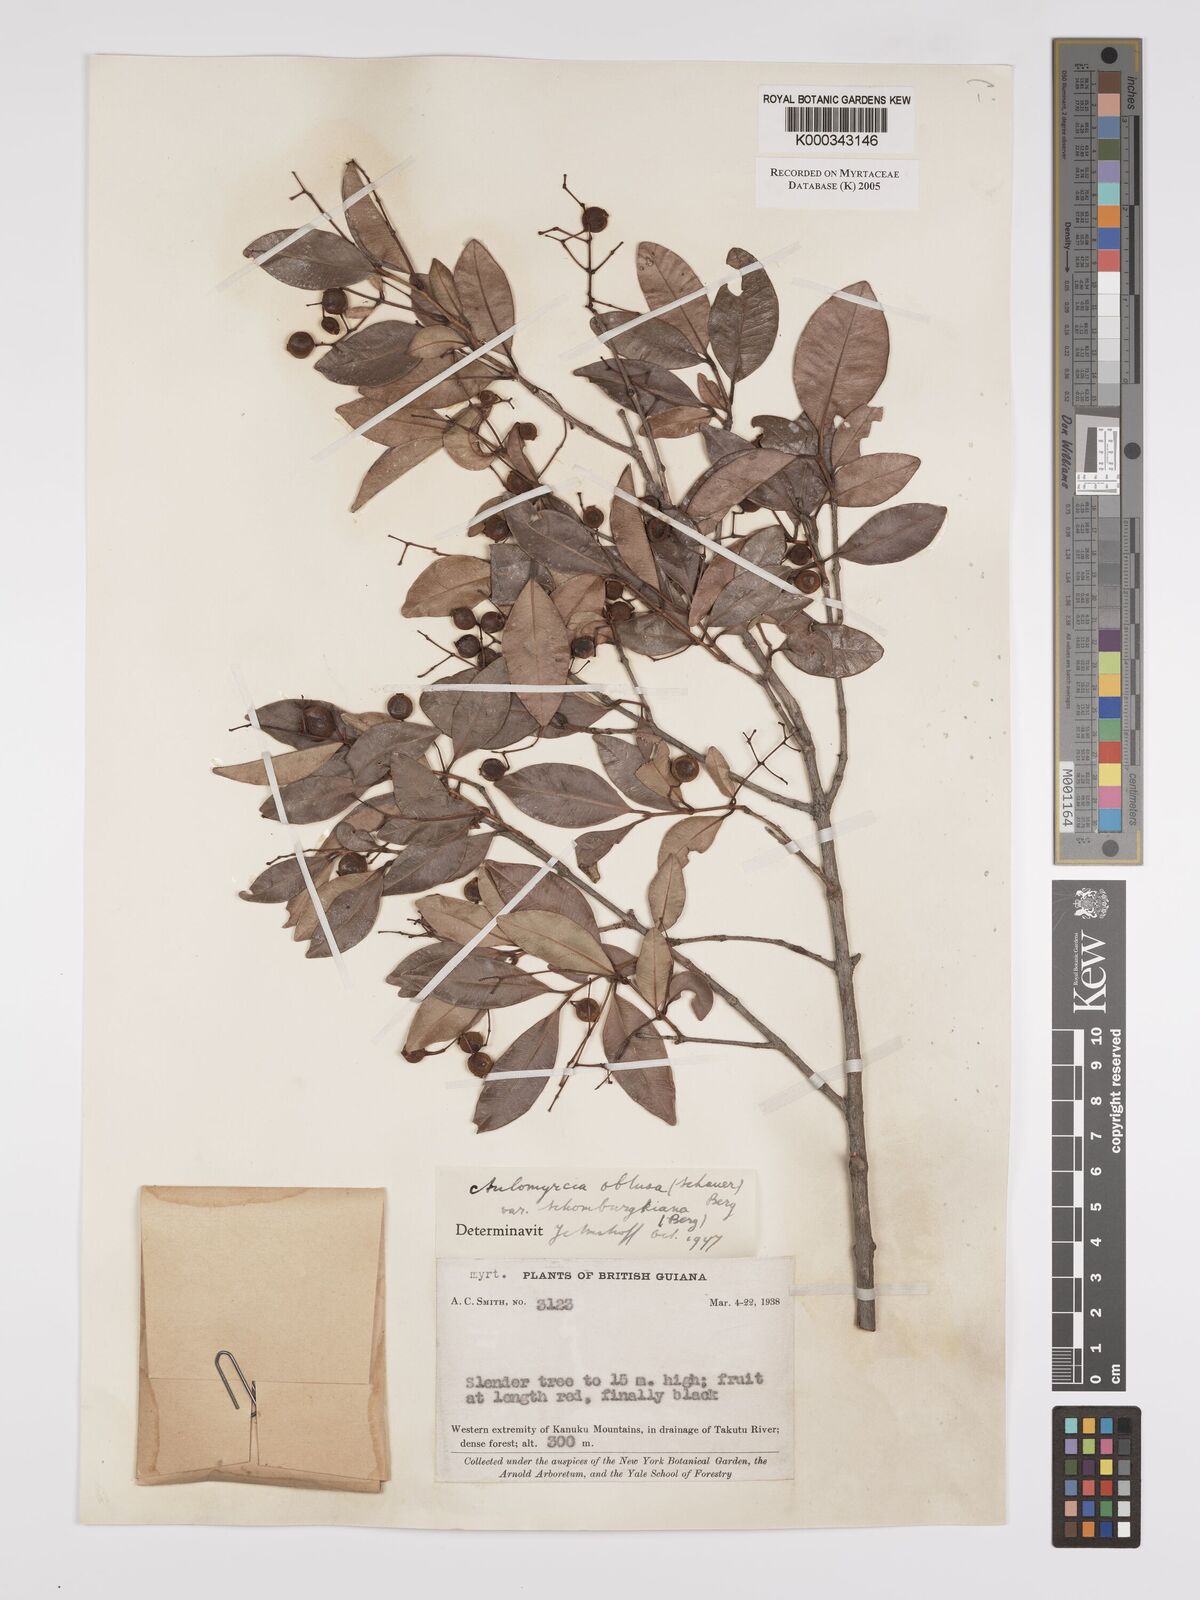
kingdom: Plantae
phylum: Tracheophyta
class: Magnoliopsida
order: Myrtales
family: Myrtaceae
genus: Myrcia
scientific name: Myrcia guianensis
